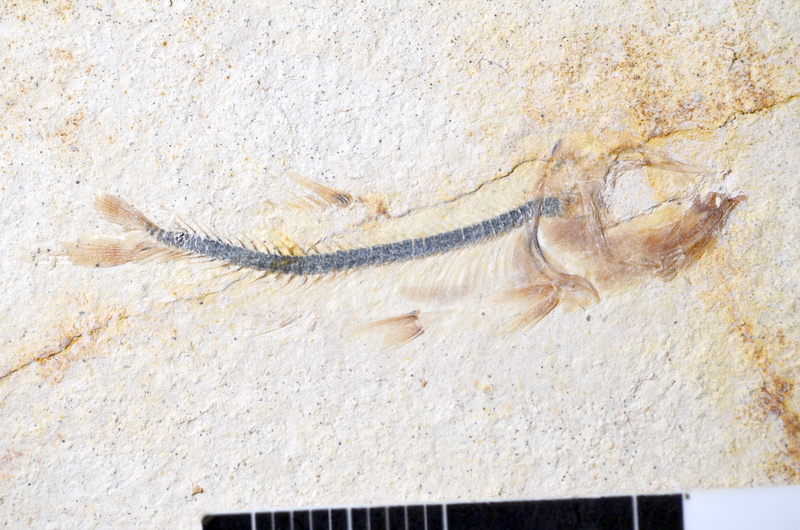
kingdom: Animalia
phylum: Chordata
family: Ascalaboidae
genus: Ebertichthys
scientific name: Ebertichthys ettlingensis
